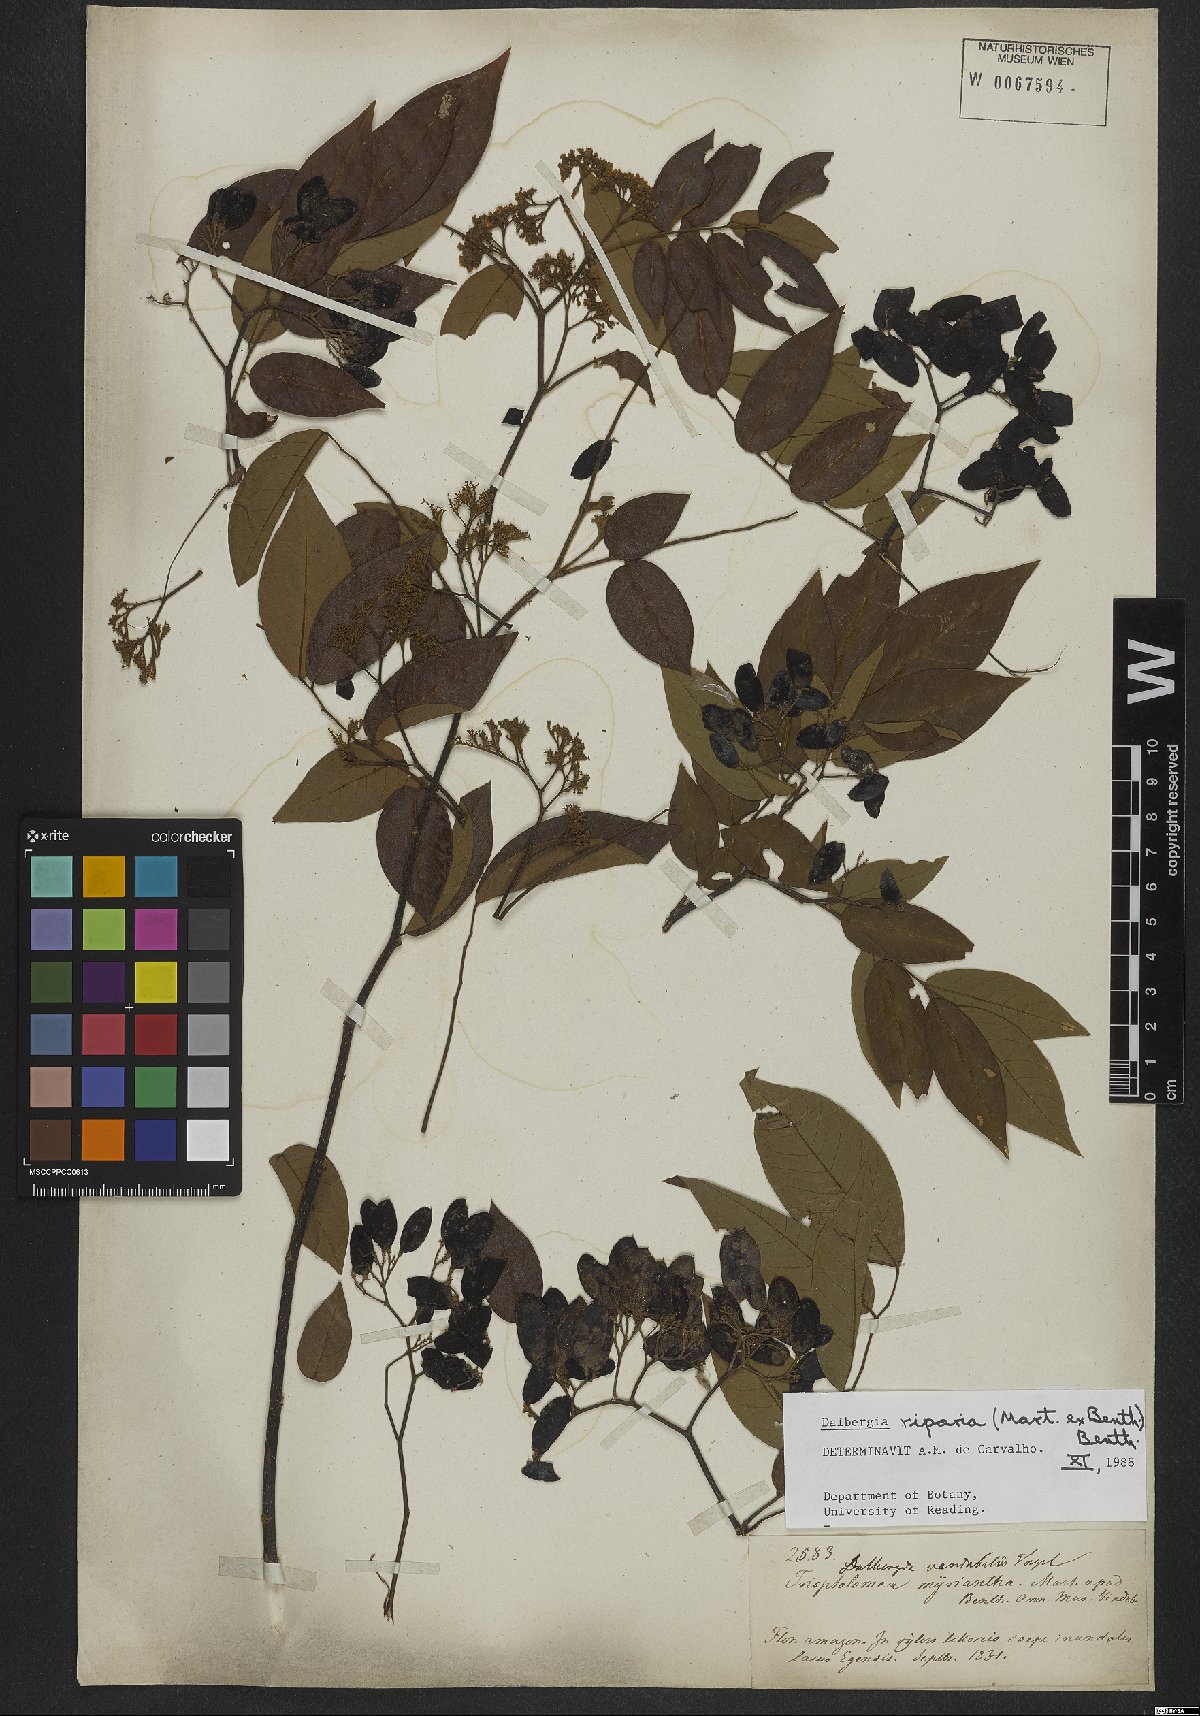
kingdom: Plantae
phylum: Tracheophyta
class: Magnoliopsida
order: Fabales
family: Fabaceae
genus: Dalbergia
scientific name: Dalbergia riparia
